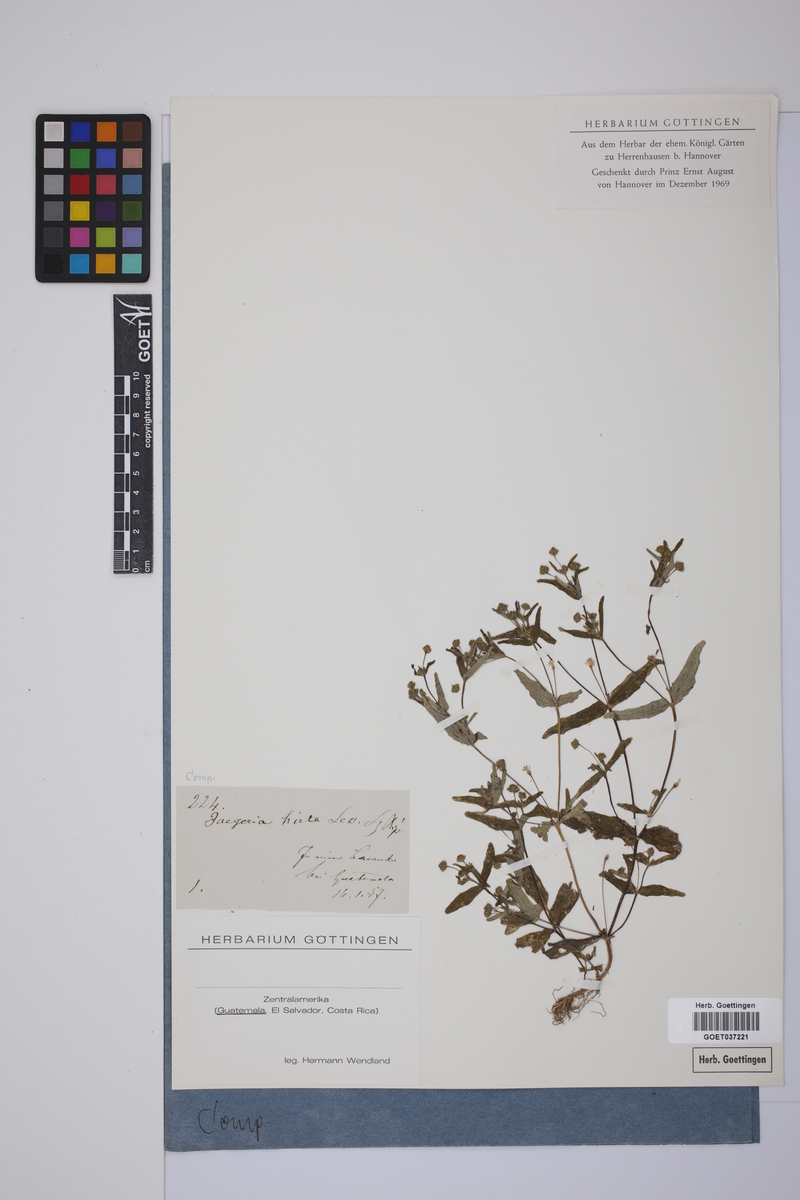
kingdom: Plantae
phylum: Tracheophyta
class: Magnoliopsida
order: Asterales
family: Asteraceae
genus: Jaegeria
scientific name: Jaegeria hirta
